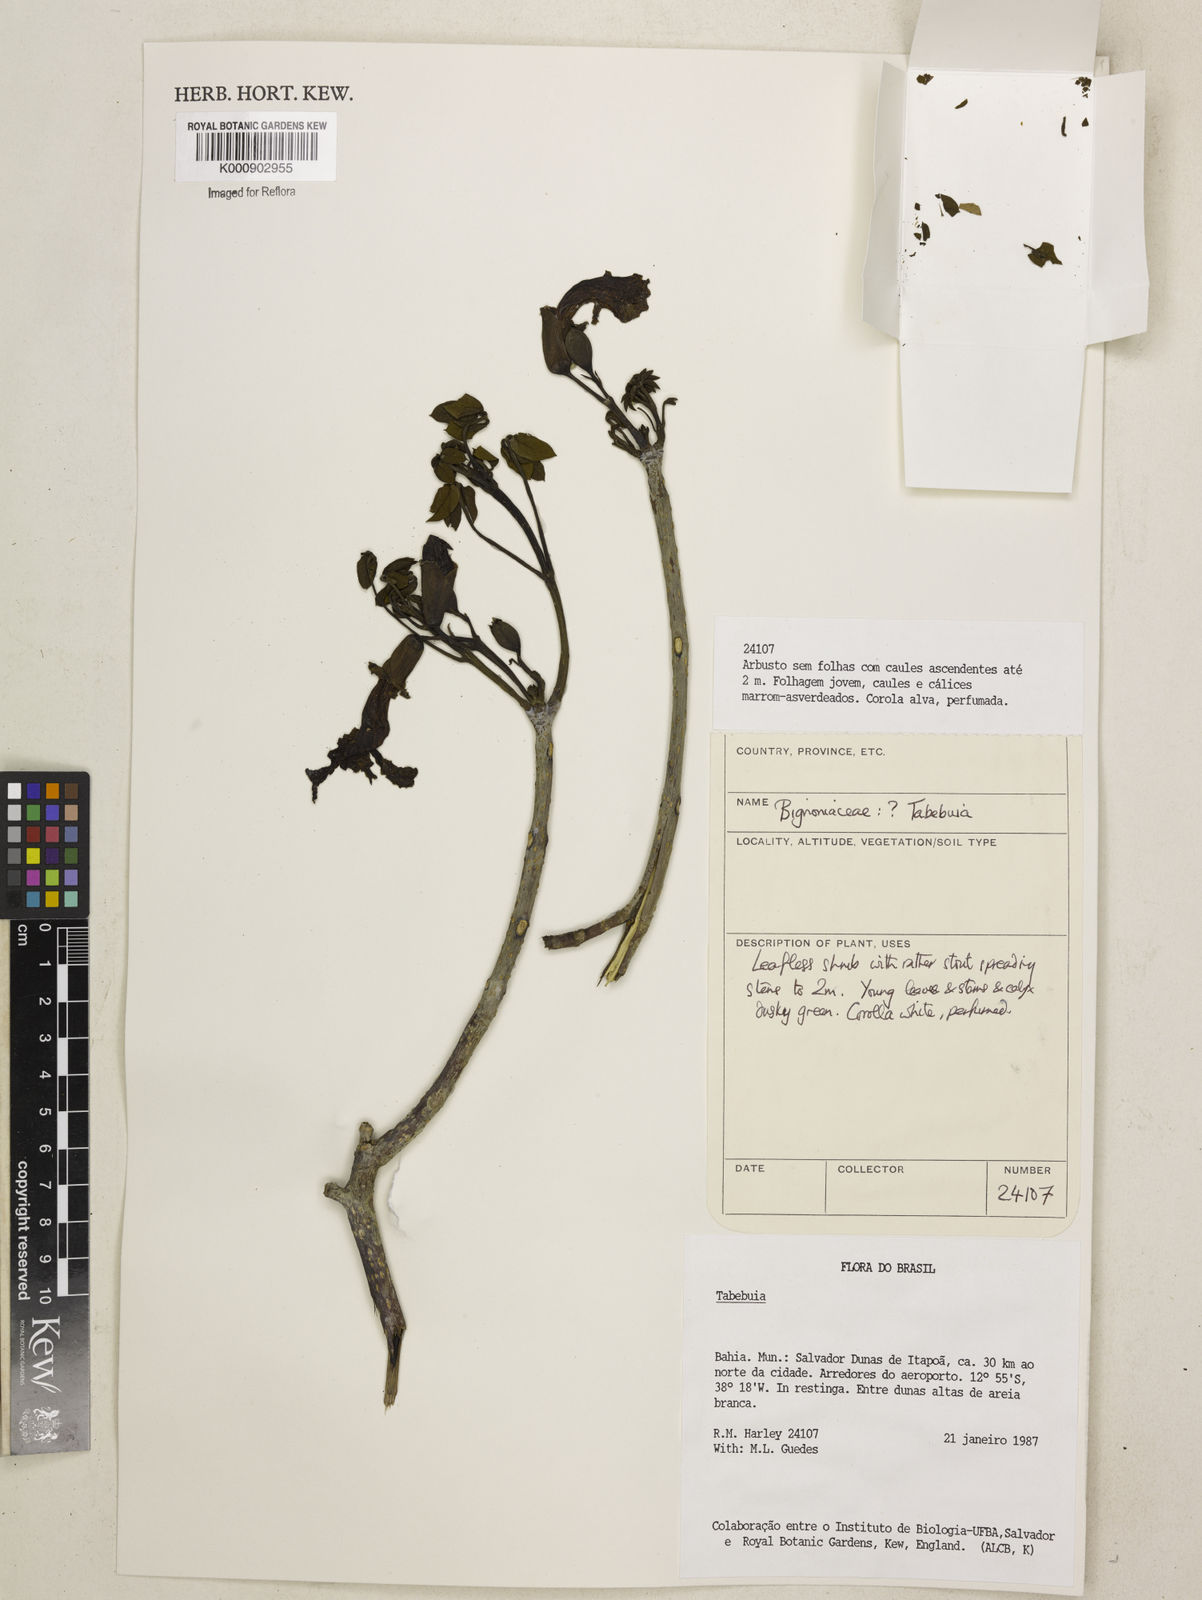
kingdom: Plantae
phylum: Tracheophyta
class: Magnoliopsida
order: Lamiales
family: Bignoniaceae
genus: Tabebuia
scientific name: Tabebuia
